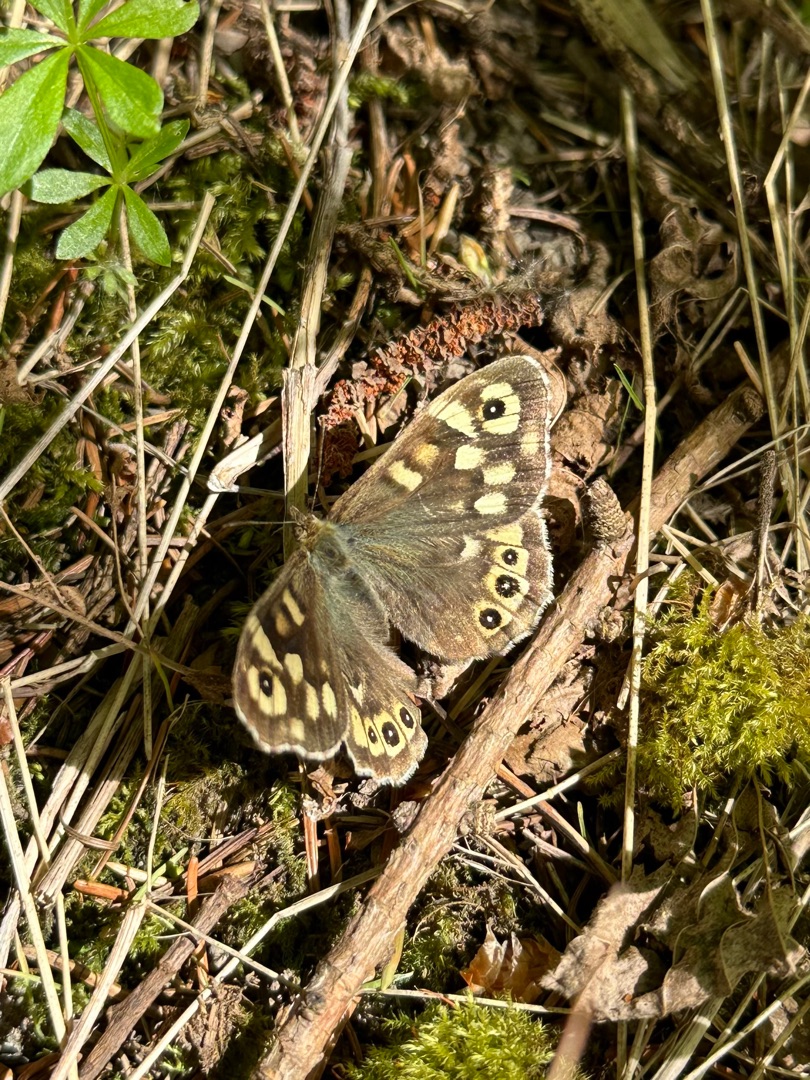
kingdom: Animalia
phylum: Arthropoda
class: Insecta
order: Lepidoptera
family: Nymphalidae
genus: Pararge
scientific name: Pararge aegeria
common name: Skovrandøje
